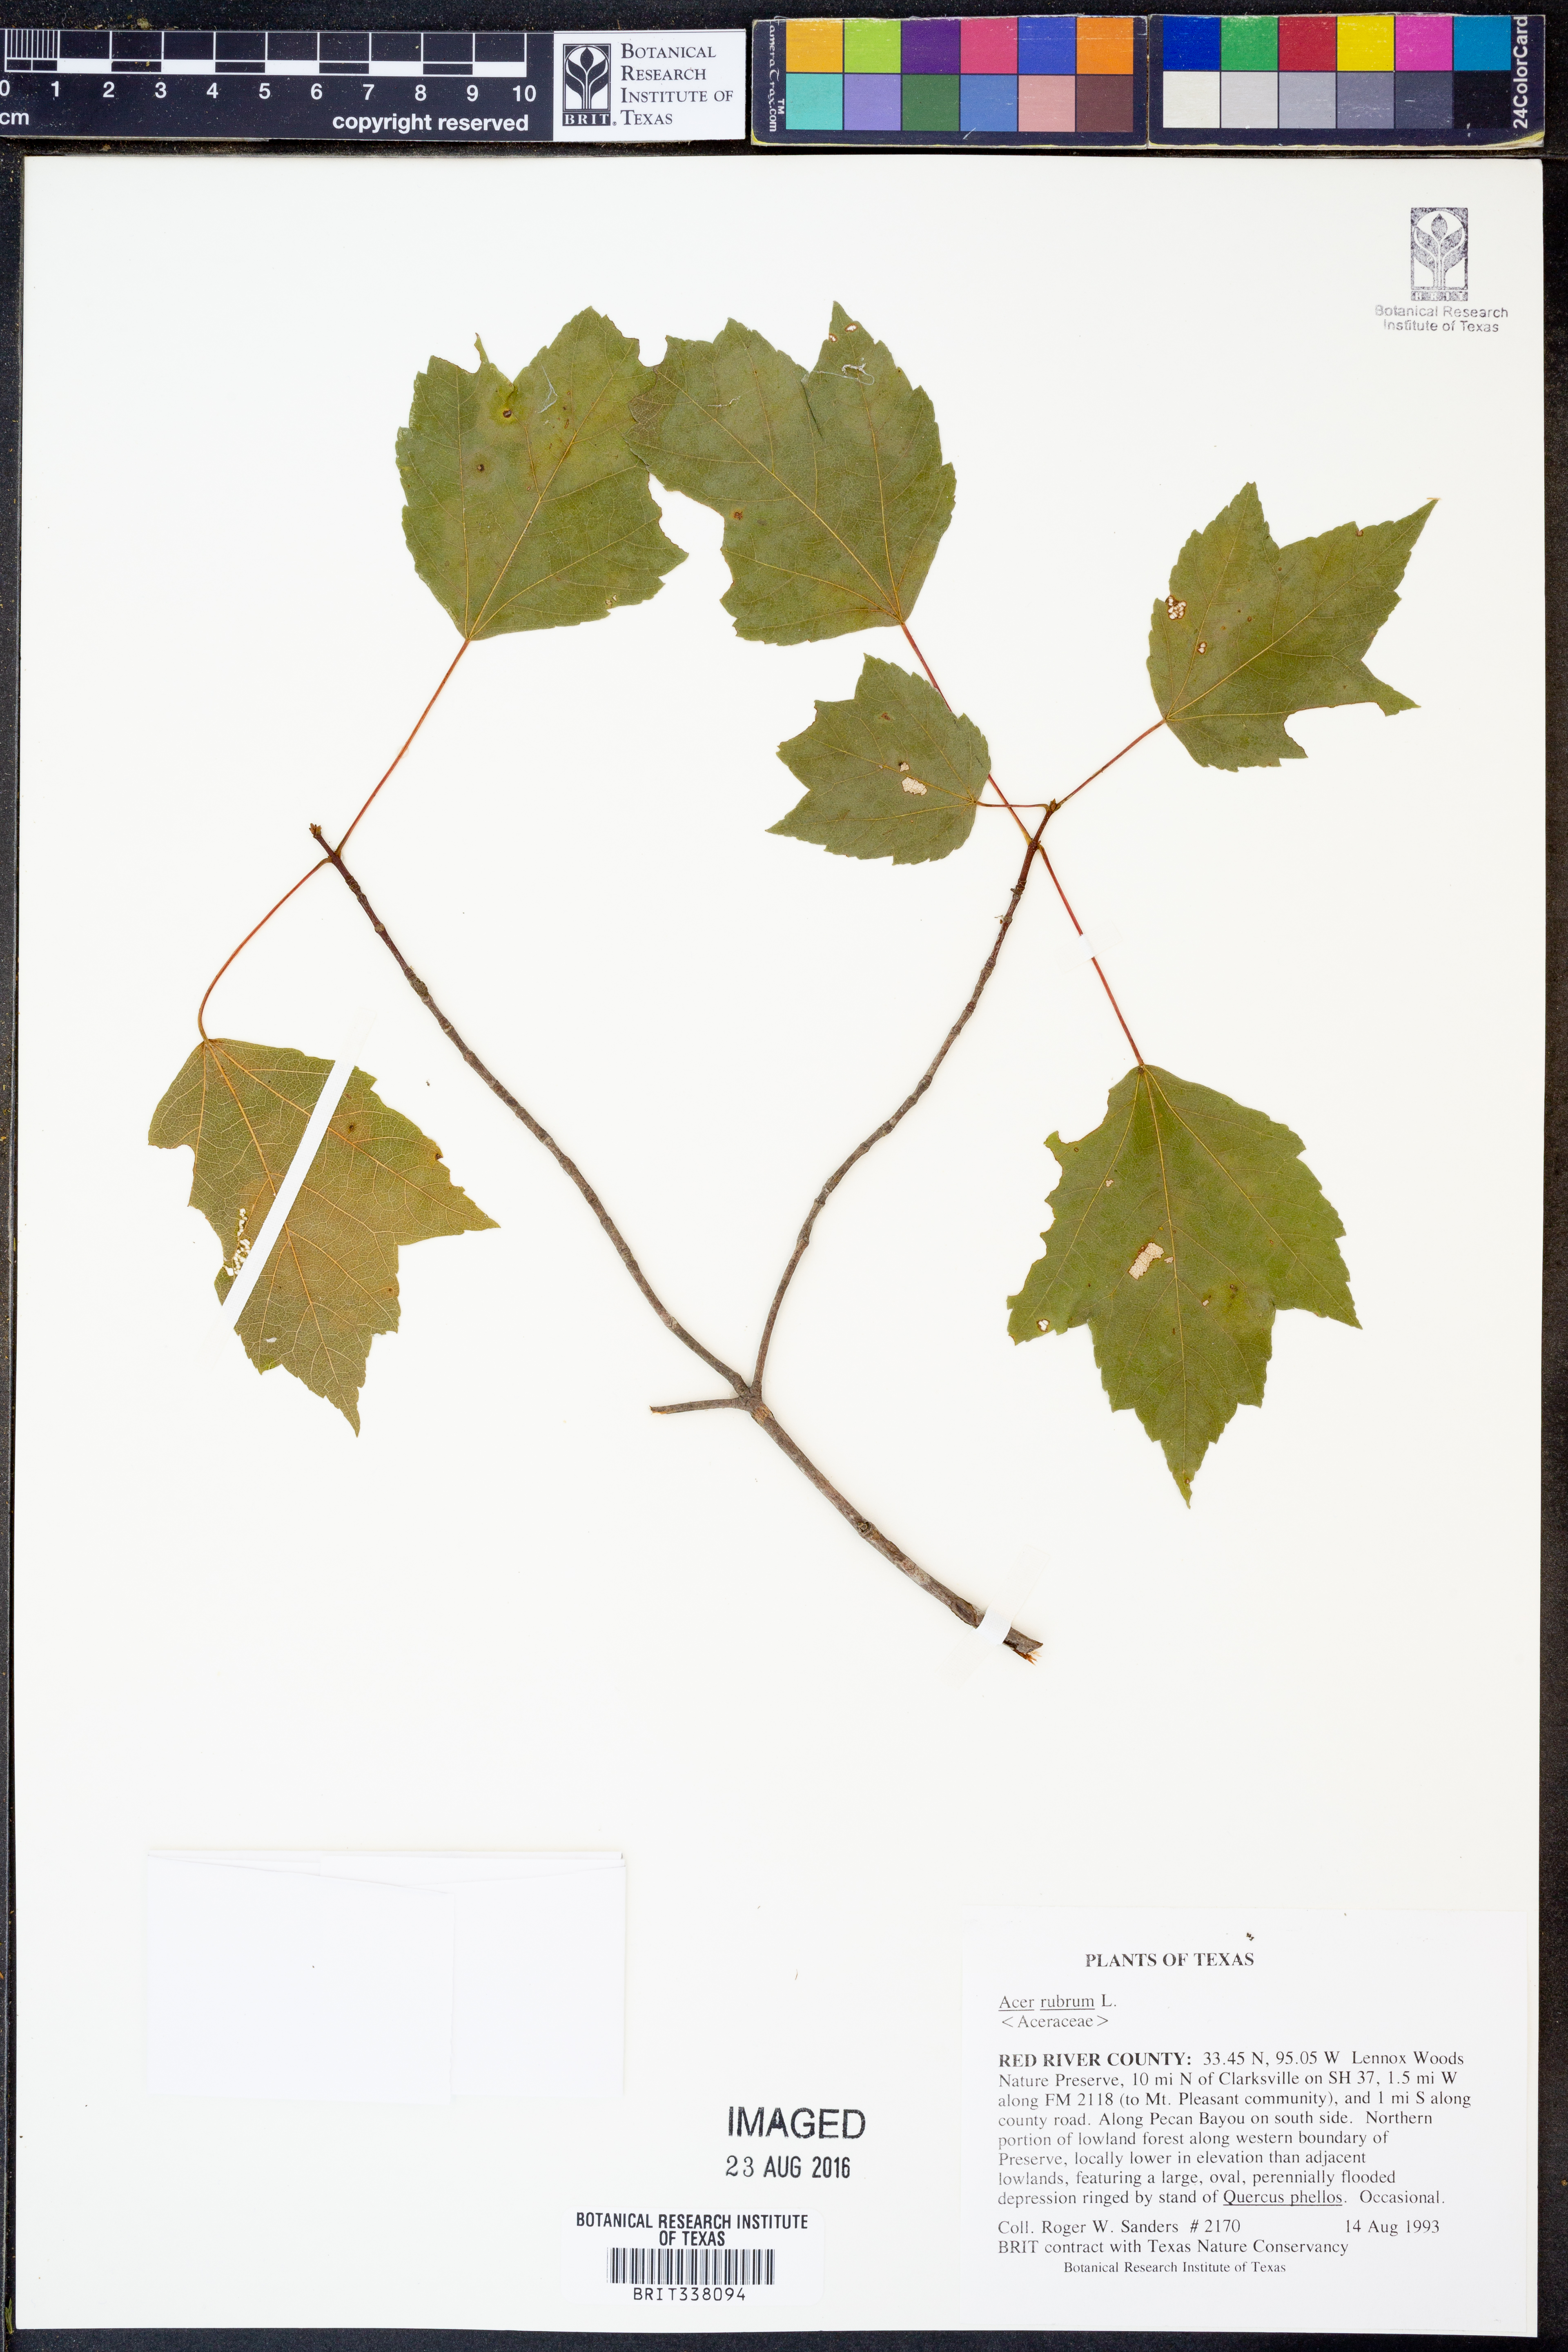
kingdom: Plantae
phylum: Tracheophyta
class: Magnoliopsida
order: Sapindales
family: Sapindaceae
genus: Acer
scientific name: Acer rubrum
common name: Red maple
